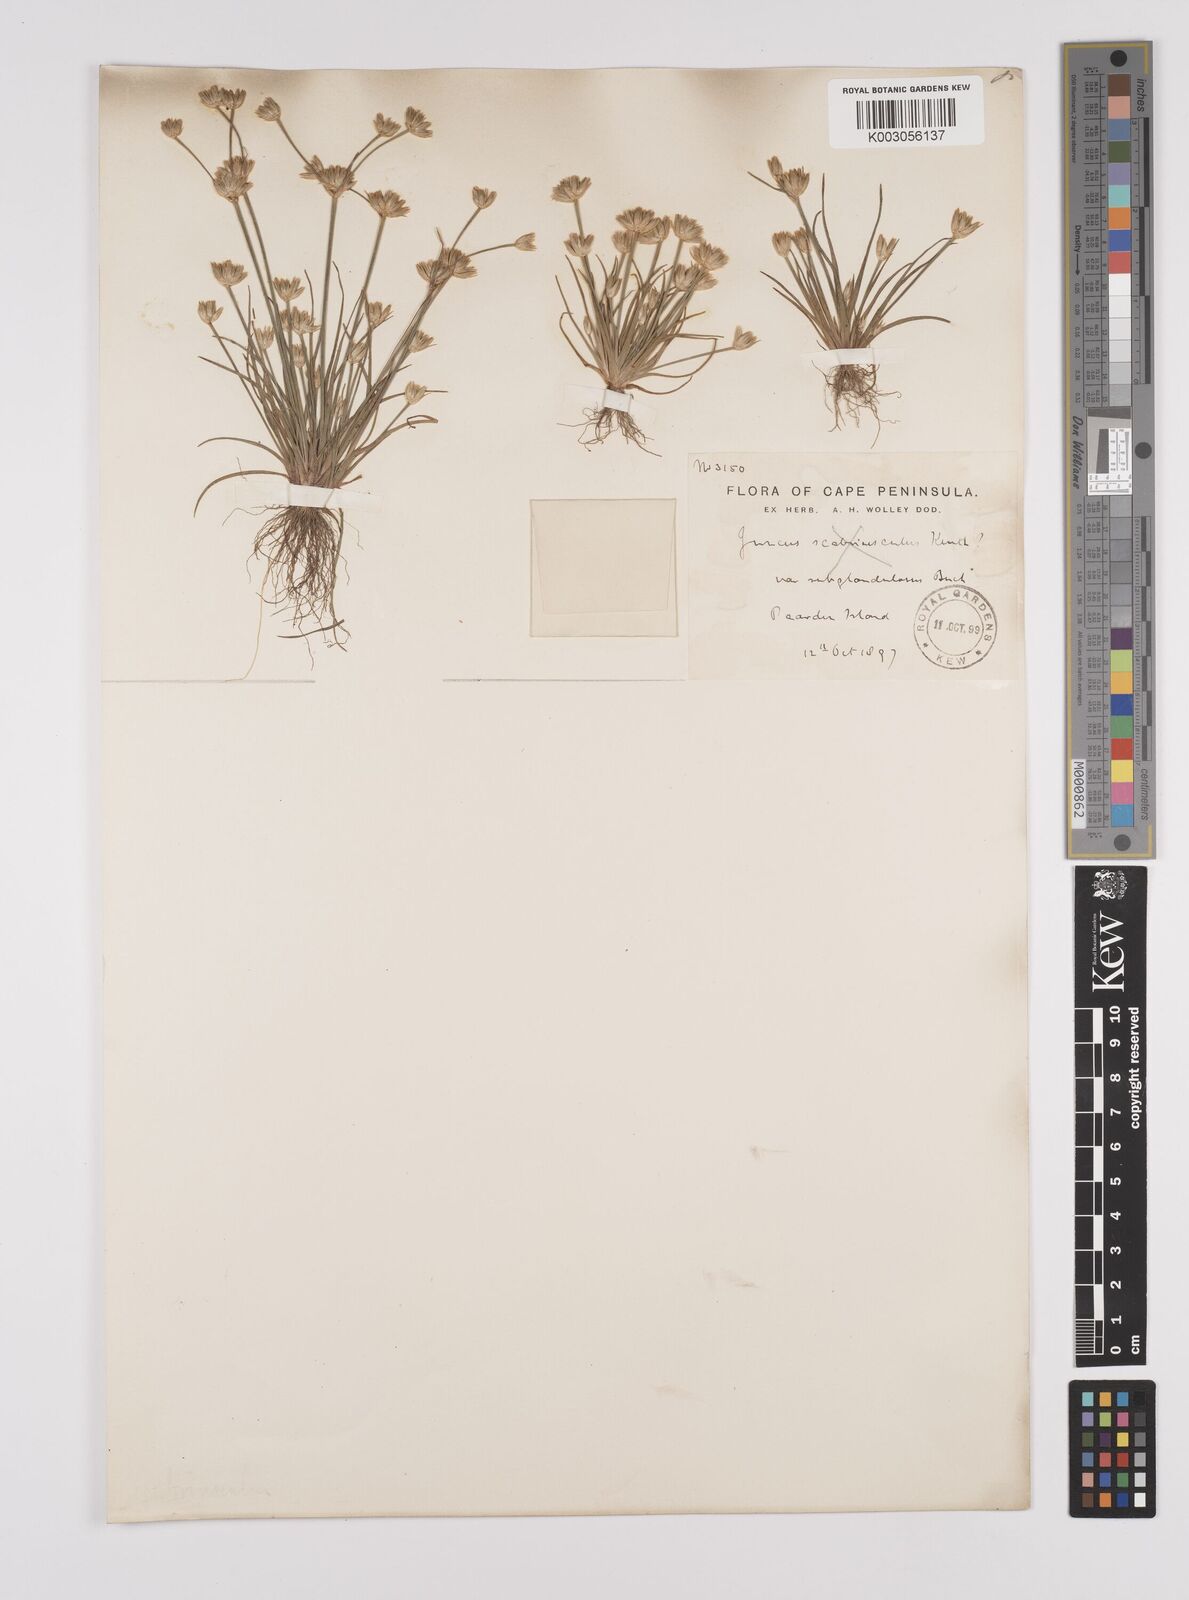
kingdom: Plantae
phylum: Tracheophyta
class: Liliopsida
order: Poales
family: Juncaceae
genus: Juncus
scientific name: Juncus
